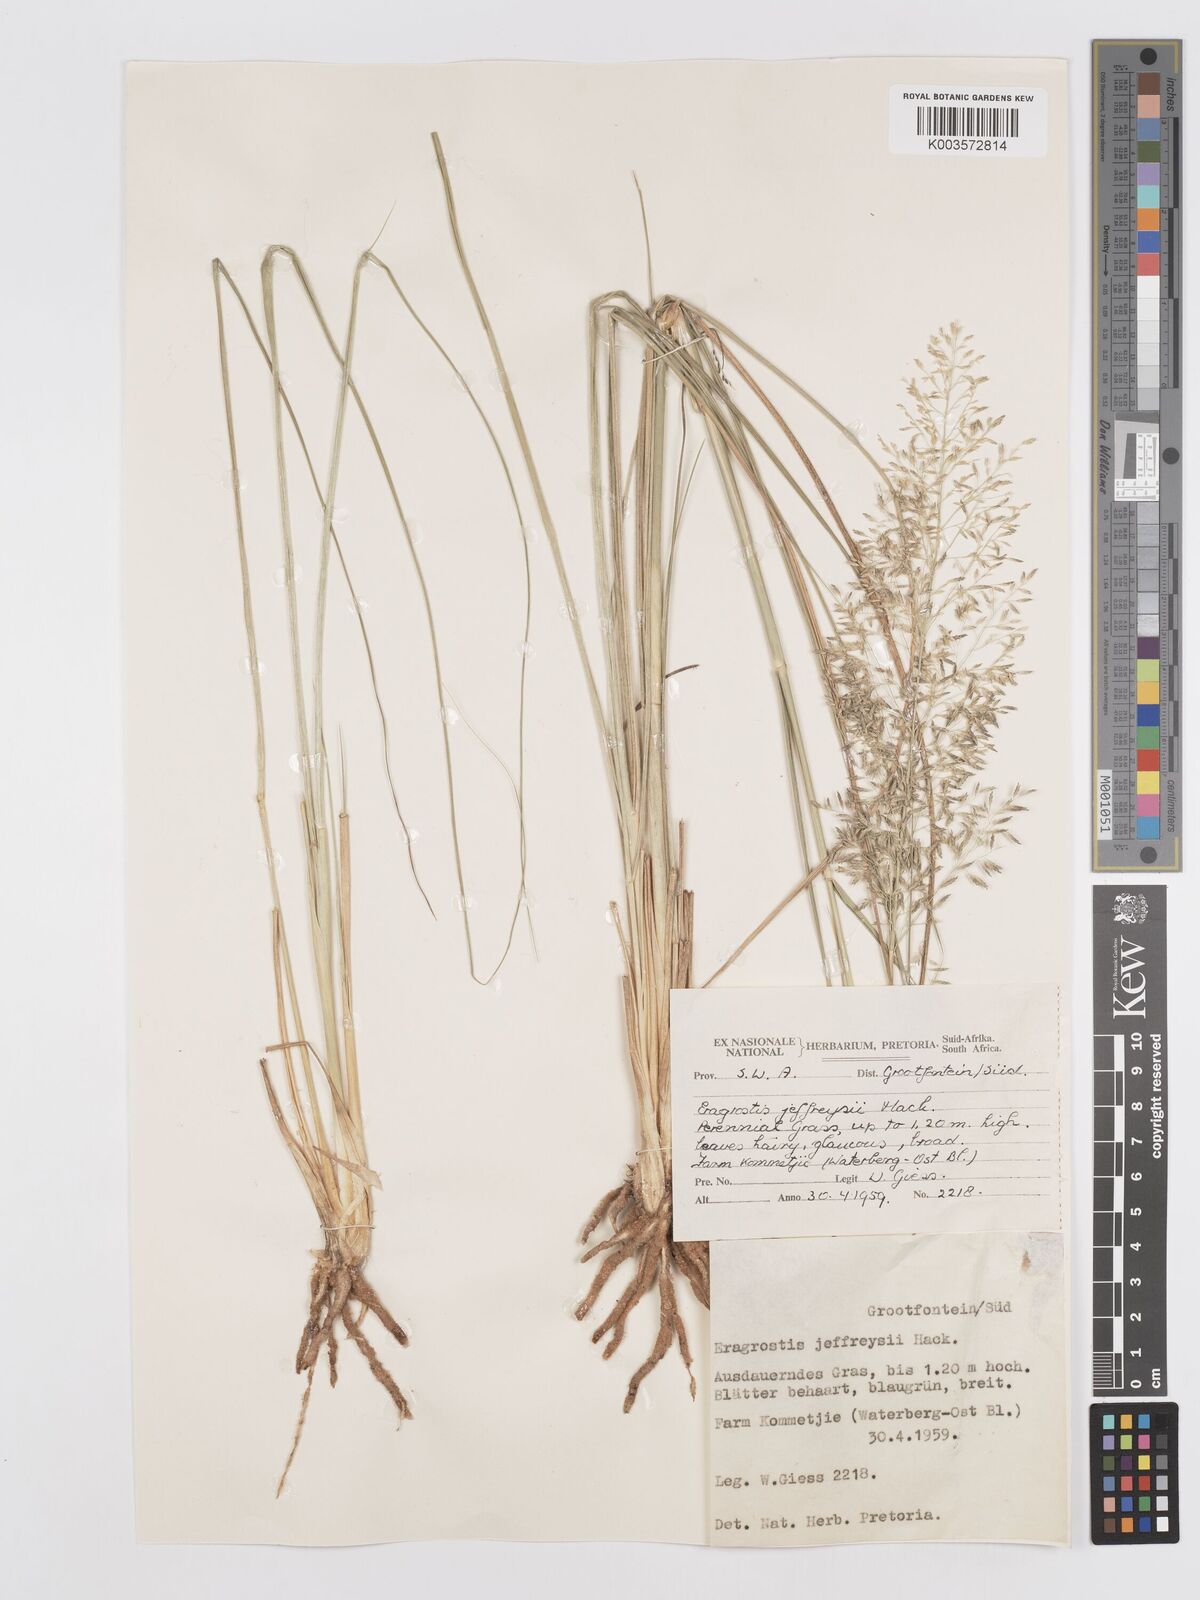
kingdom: Plantae
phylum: Tracheophyta
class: Liliopsida
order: Poales
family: Poaceae
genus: Eragrostis
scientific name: Eragrostis curvula
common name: African love-grass
